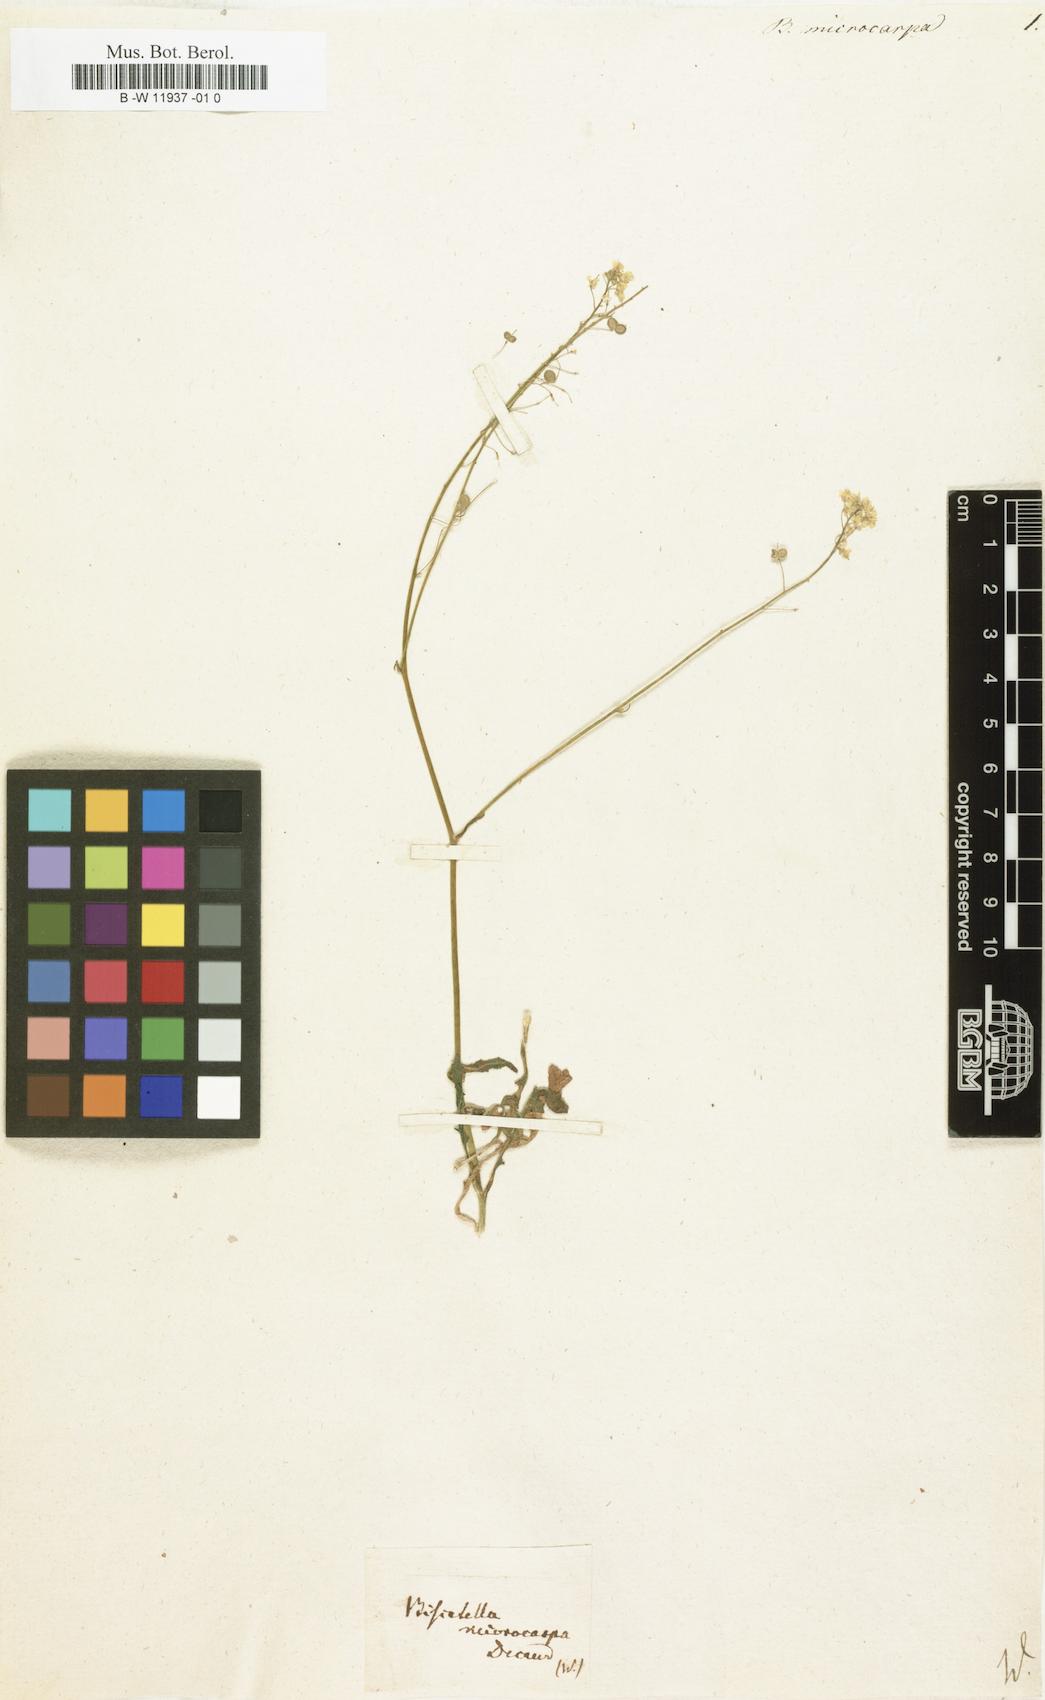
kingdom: Plantae
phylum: Tracheophyta
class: Magnoliopsida
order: Brassicales
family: Brassicaceae
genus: Biscutella
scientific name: Biscutella lyrata
